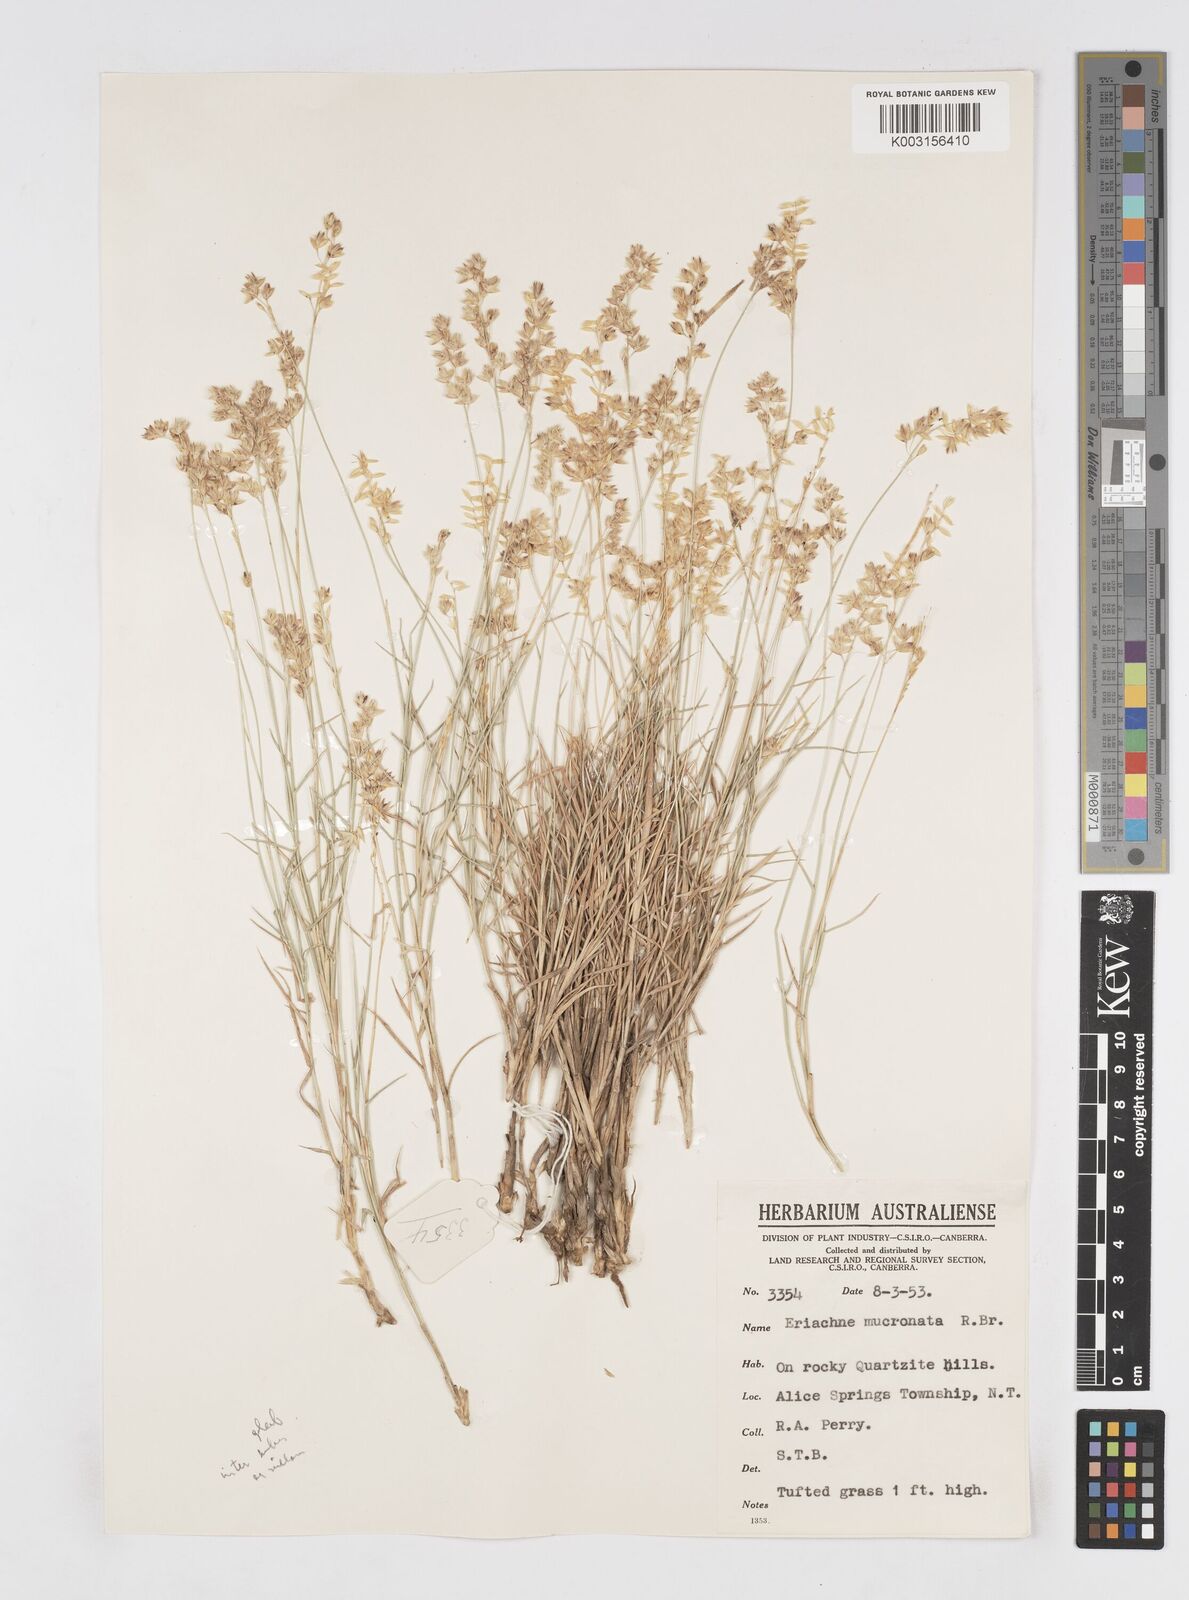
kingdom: Plantae
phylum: Tracheophyta
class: Liliopsida
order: Poales
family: Poaceae
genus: Eriachne
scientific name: Eriachne mucronata
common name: Mountain wanderrie grass
